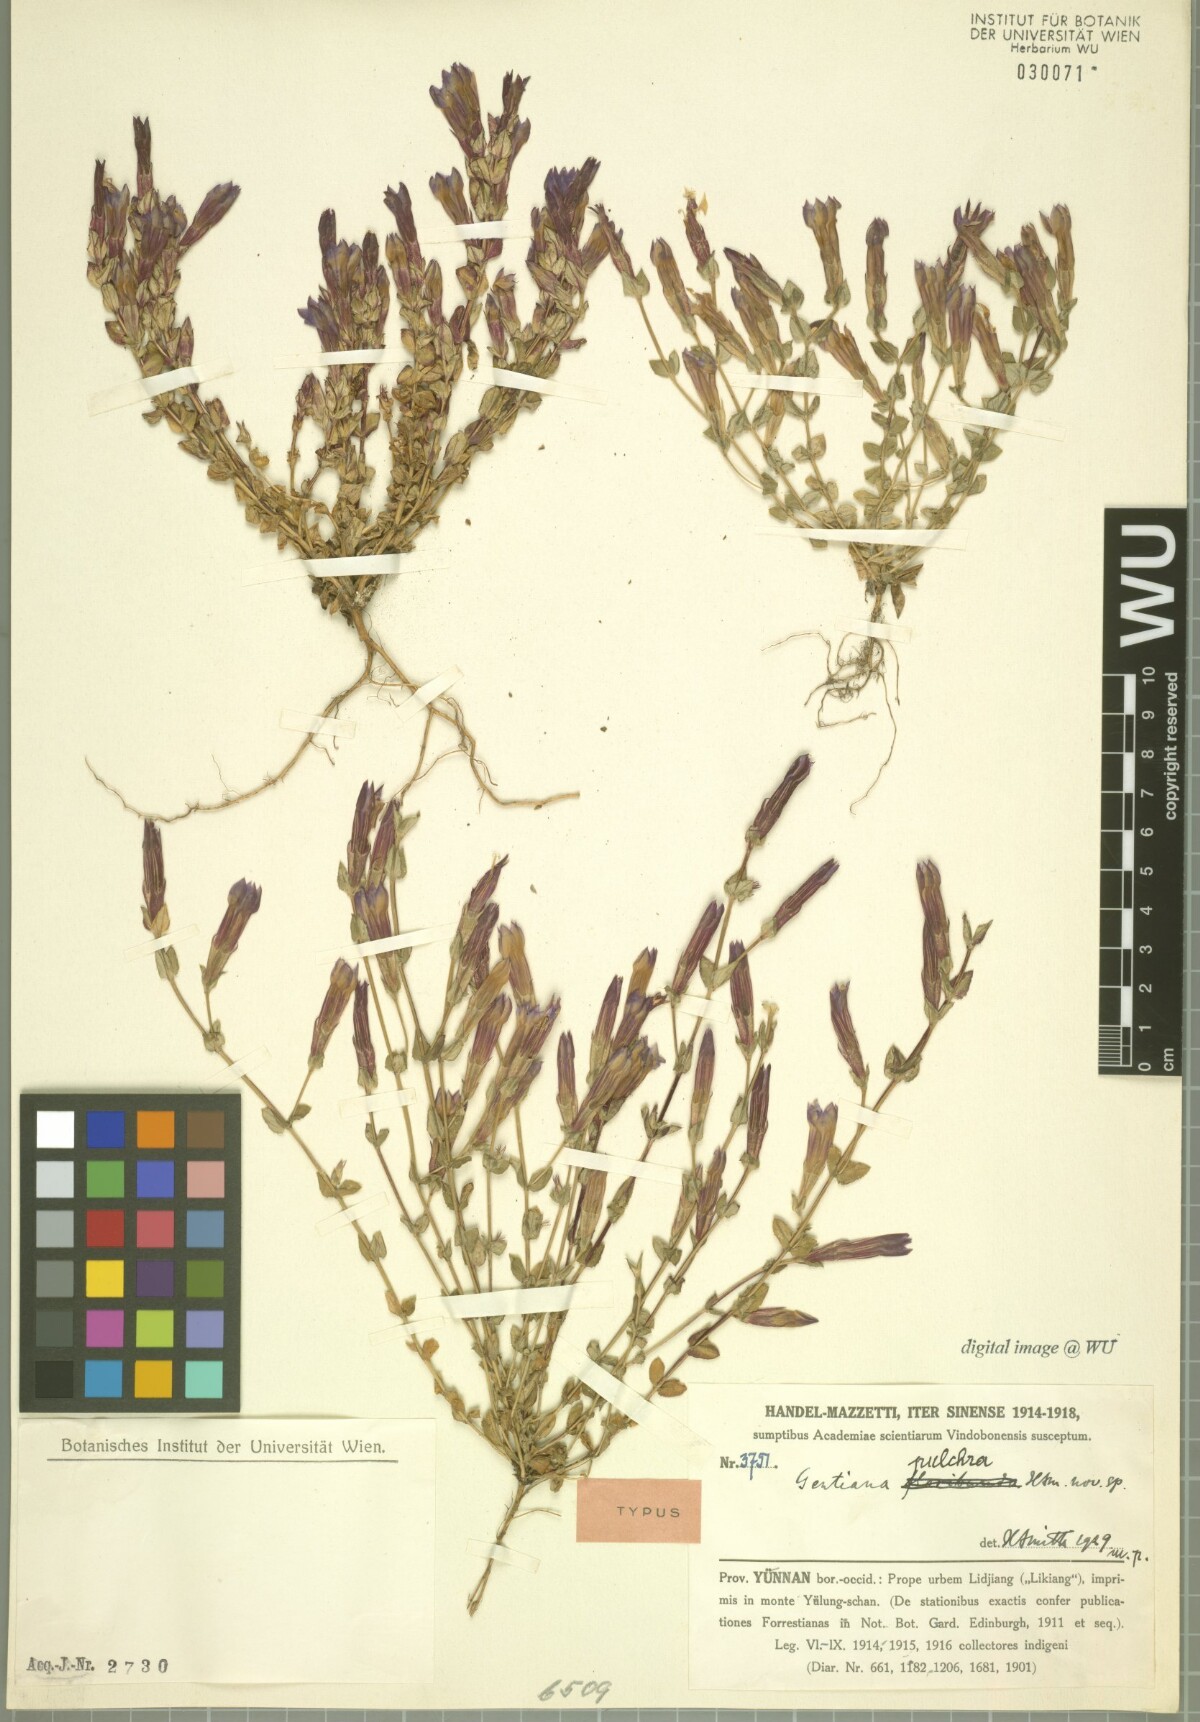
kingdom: Plantae
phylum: Tracheophyta
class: Magnoliopsida
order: Gentianales
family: Gentianaceae
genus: Metagentiana
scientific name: Metagentiana serra
